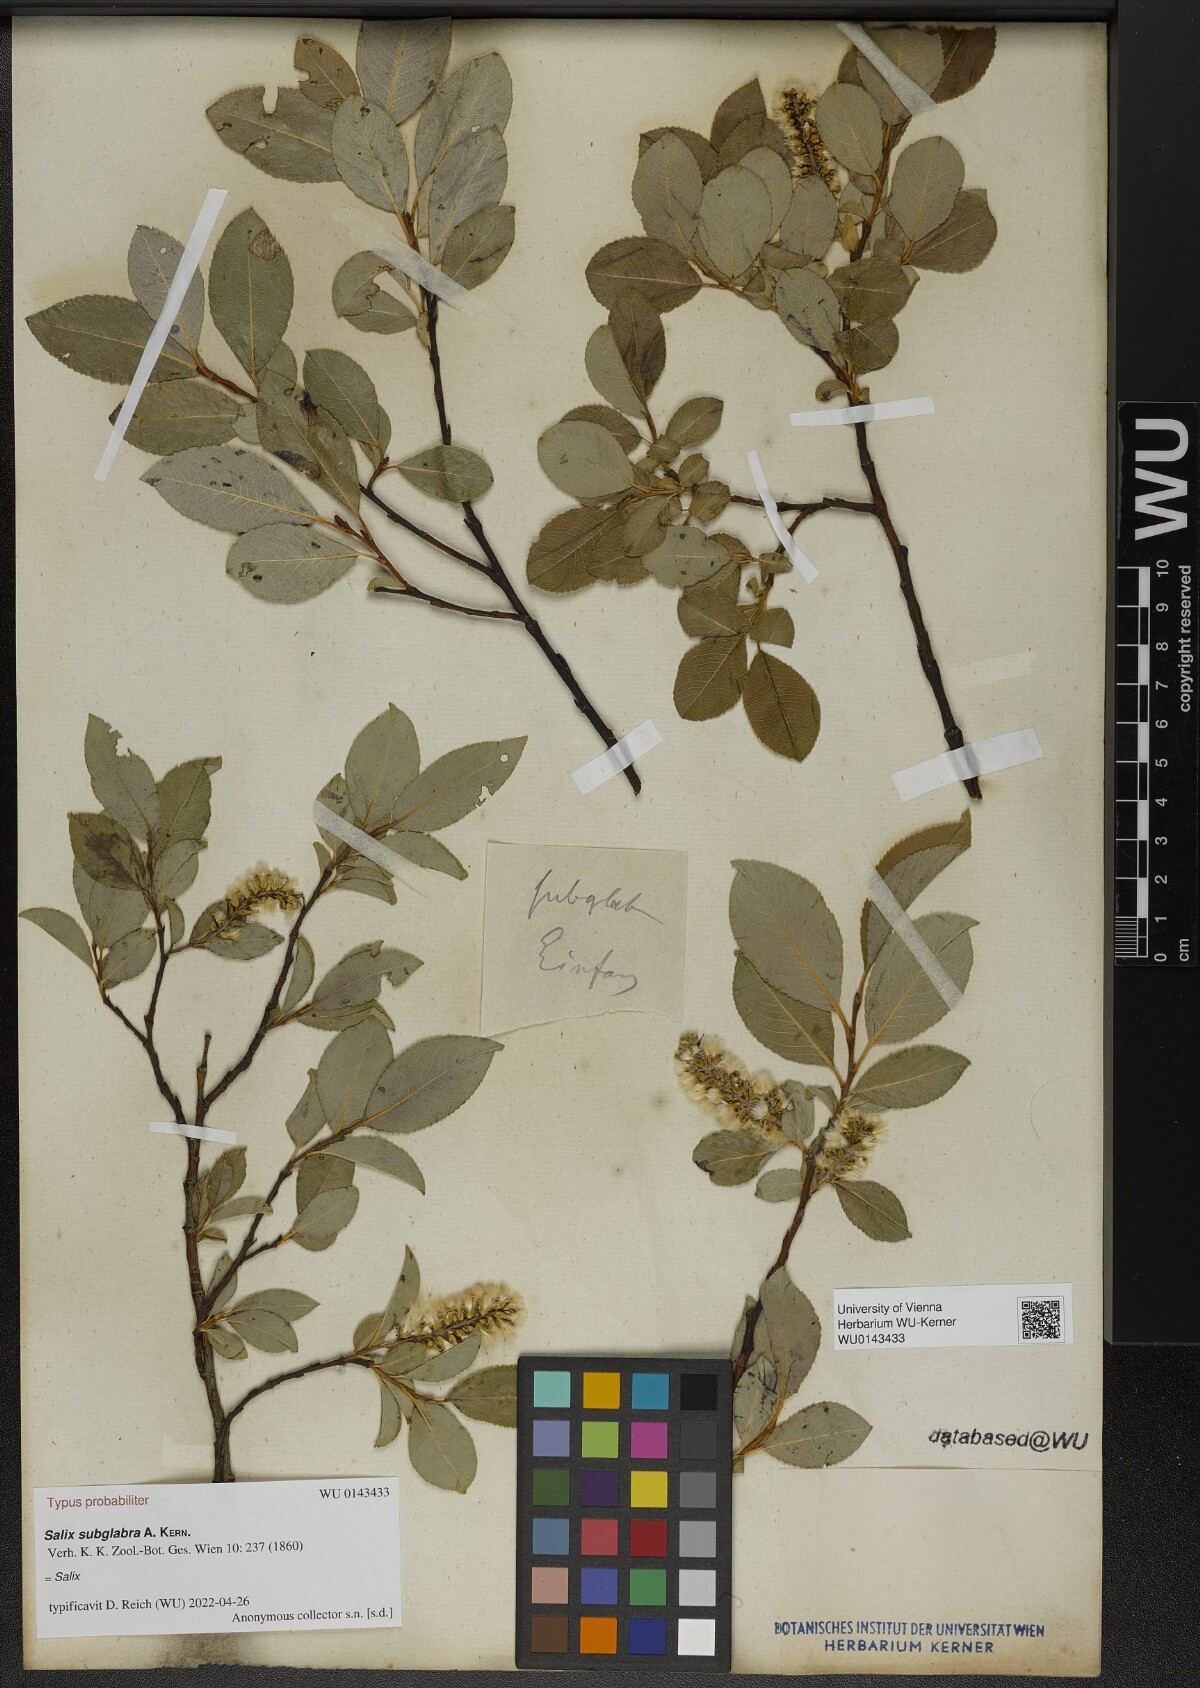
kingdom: Plantae
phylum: Tracheophyta
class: Magnoliopsida
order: Malpighiales
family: Salicaceae
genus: Salix
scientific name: Salix subglabra
